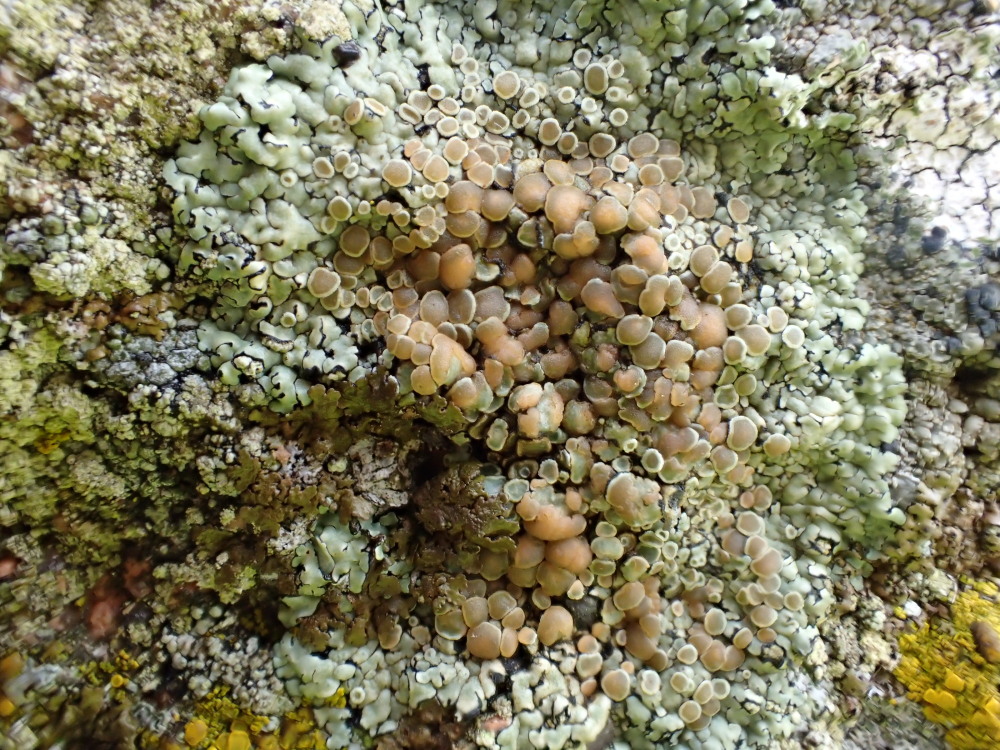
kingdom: Fungi
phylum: Ascomycota
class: Lecanoromycetes
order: Lecanorales
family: Lecanoraceae
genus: Protoparmeliopsis
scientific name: Protoparmeliopsis muralis
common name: randfliget kantskivelav
